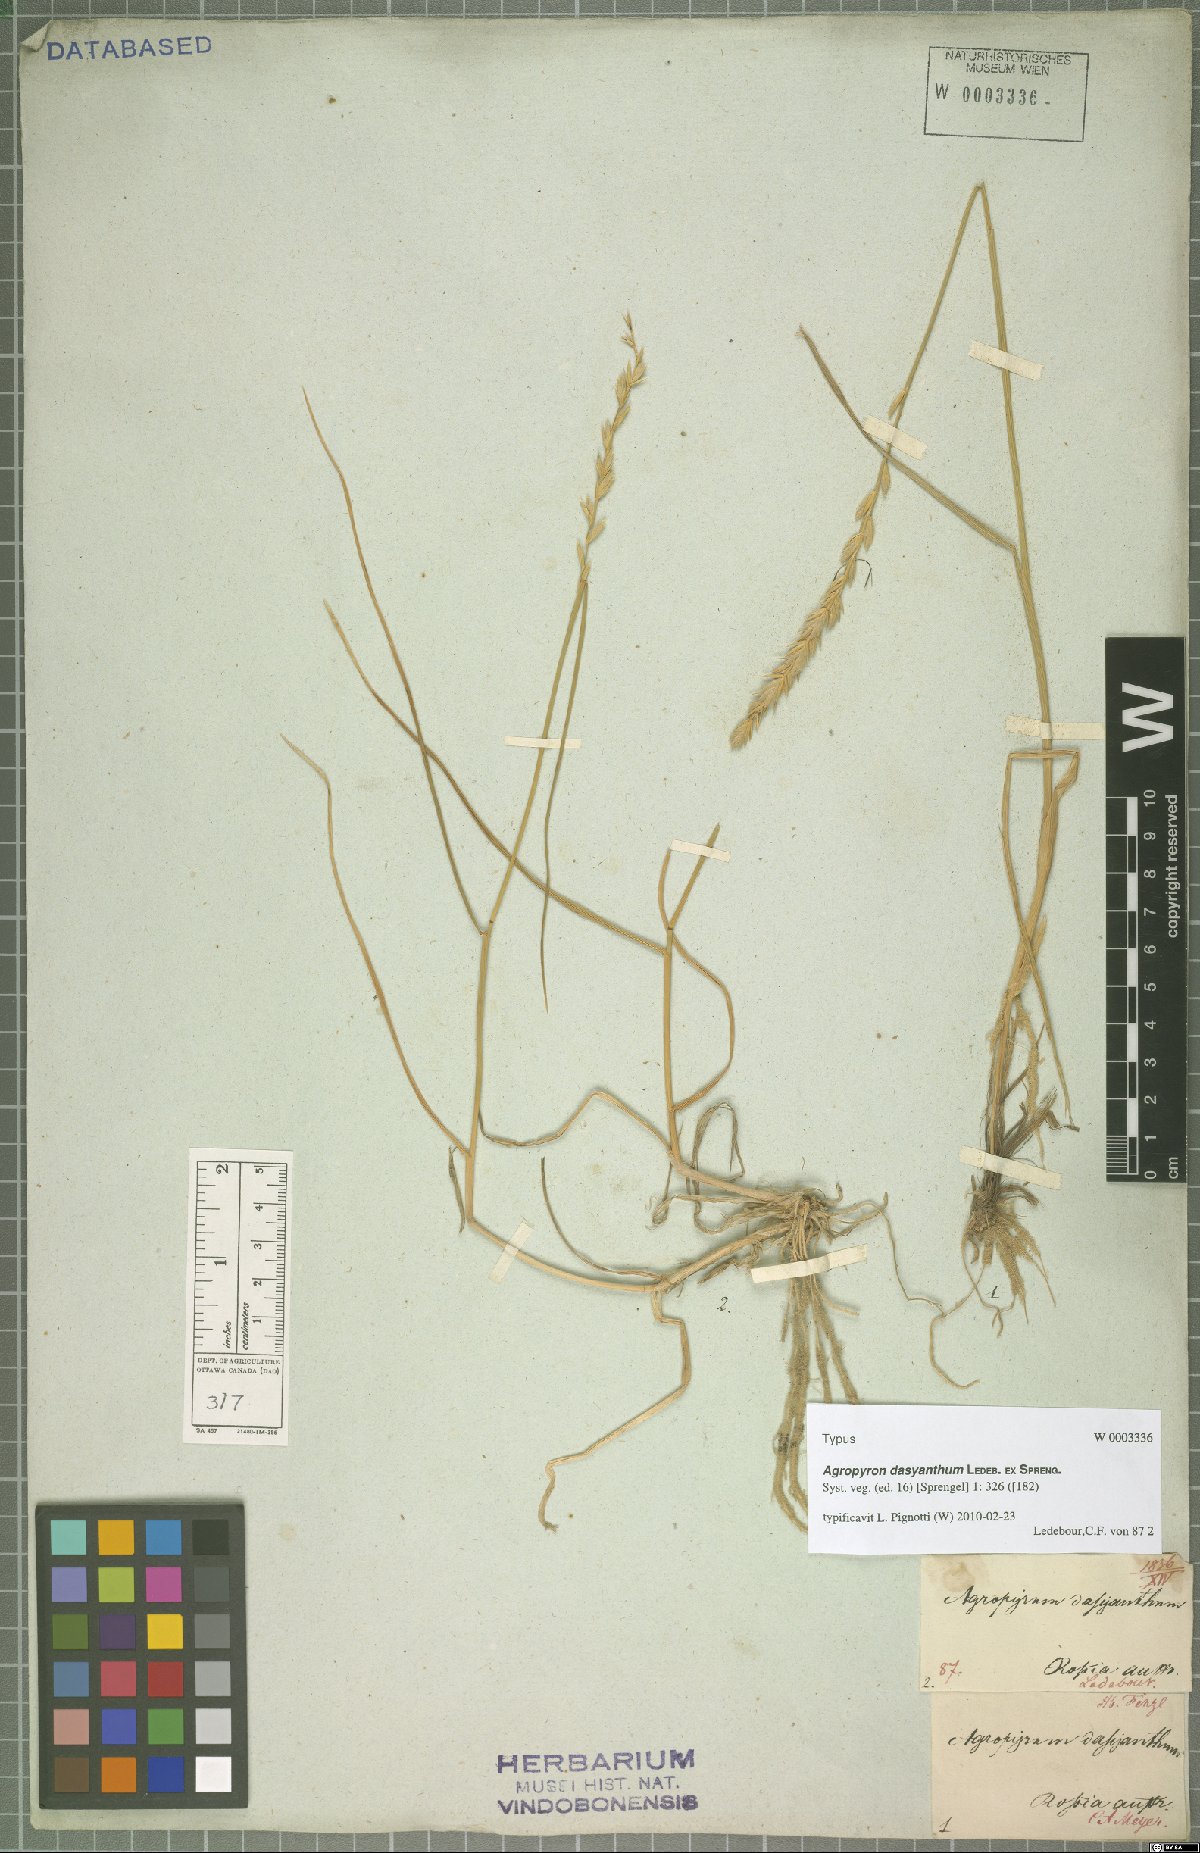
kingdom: Plantae
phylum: Tracheophyta
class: Liliopsida
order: Poales
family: Poaceae
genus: Agropyron
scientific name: Agropyron dasyanthum
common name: Edge flowered crested wheatgrass
